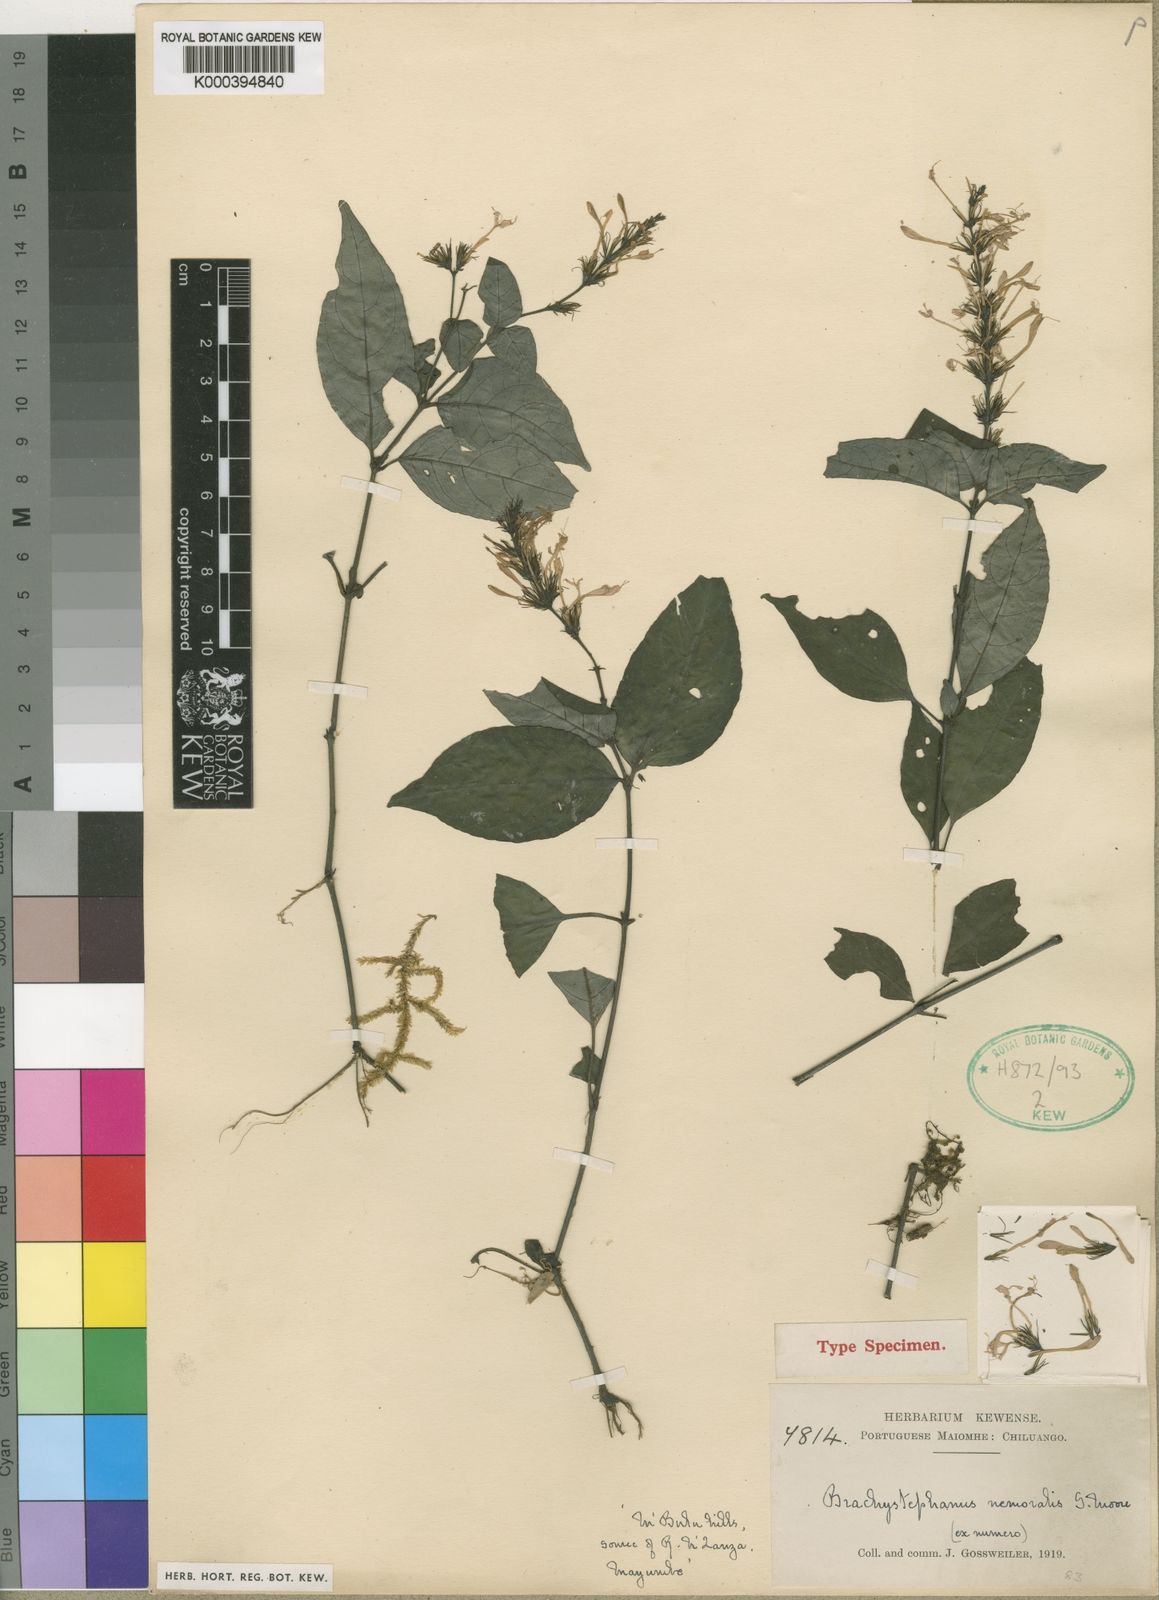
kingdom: Plantae
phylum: Tracheophyta
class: Magnoliopsida
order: Lamiales
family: Acanthaceae
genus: Brachystephanus
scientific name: Brachystephanus jaundensis
